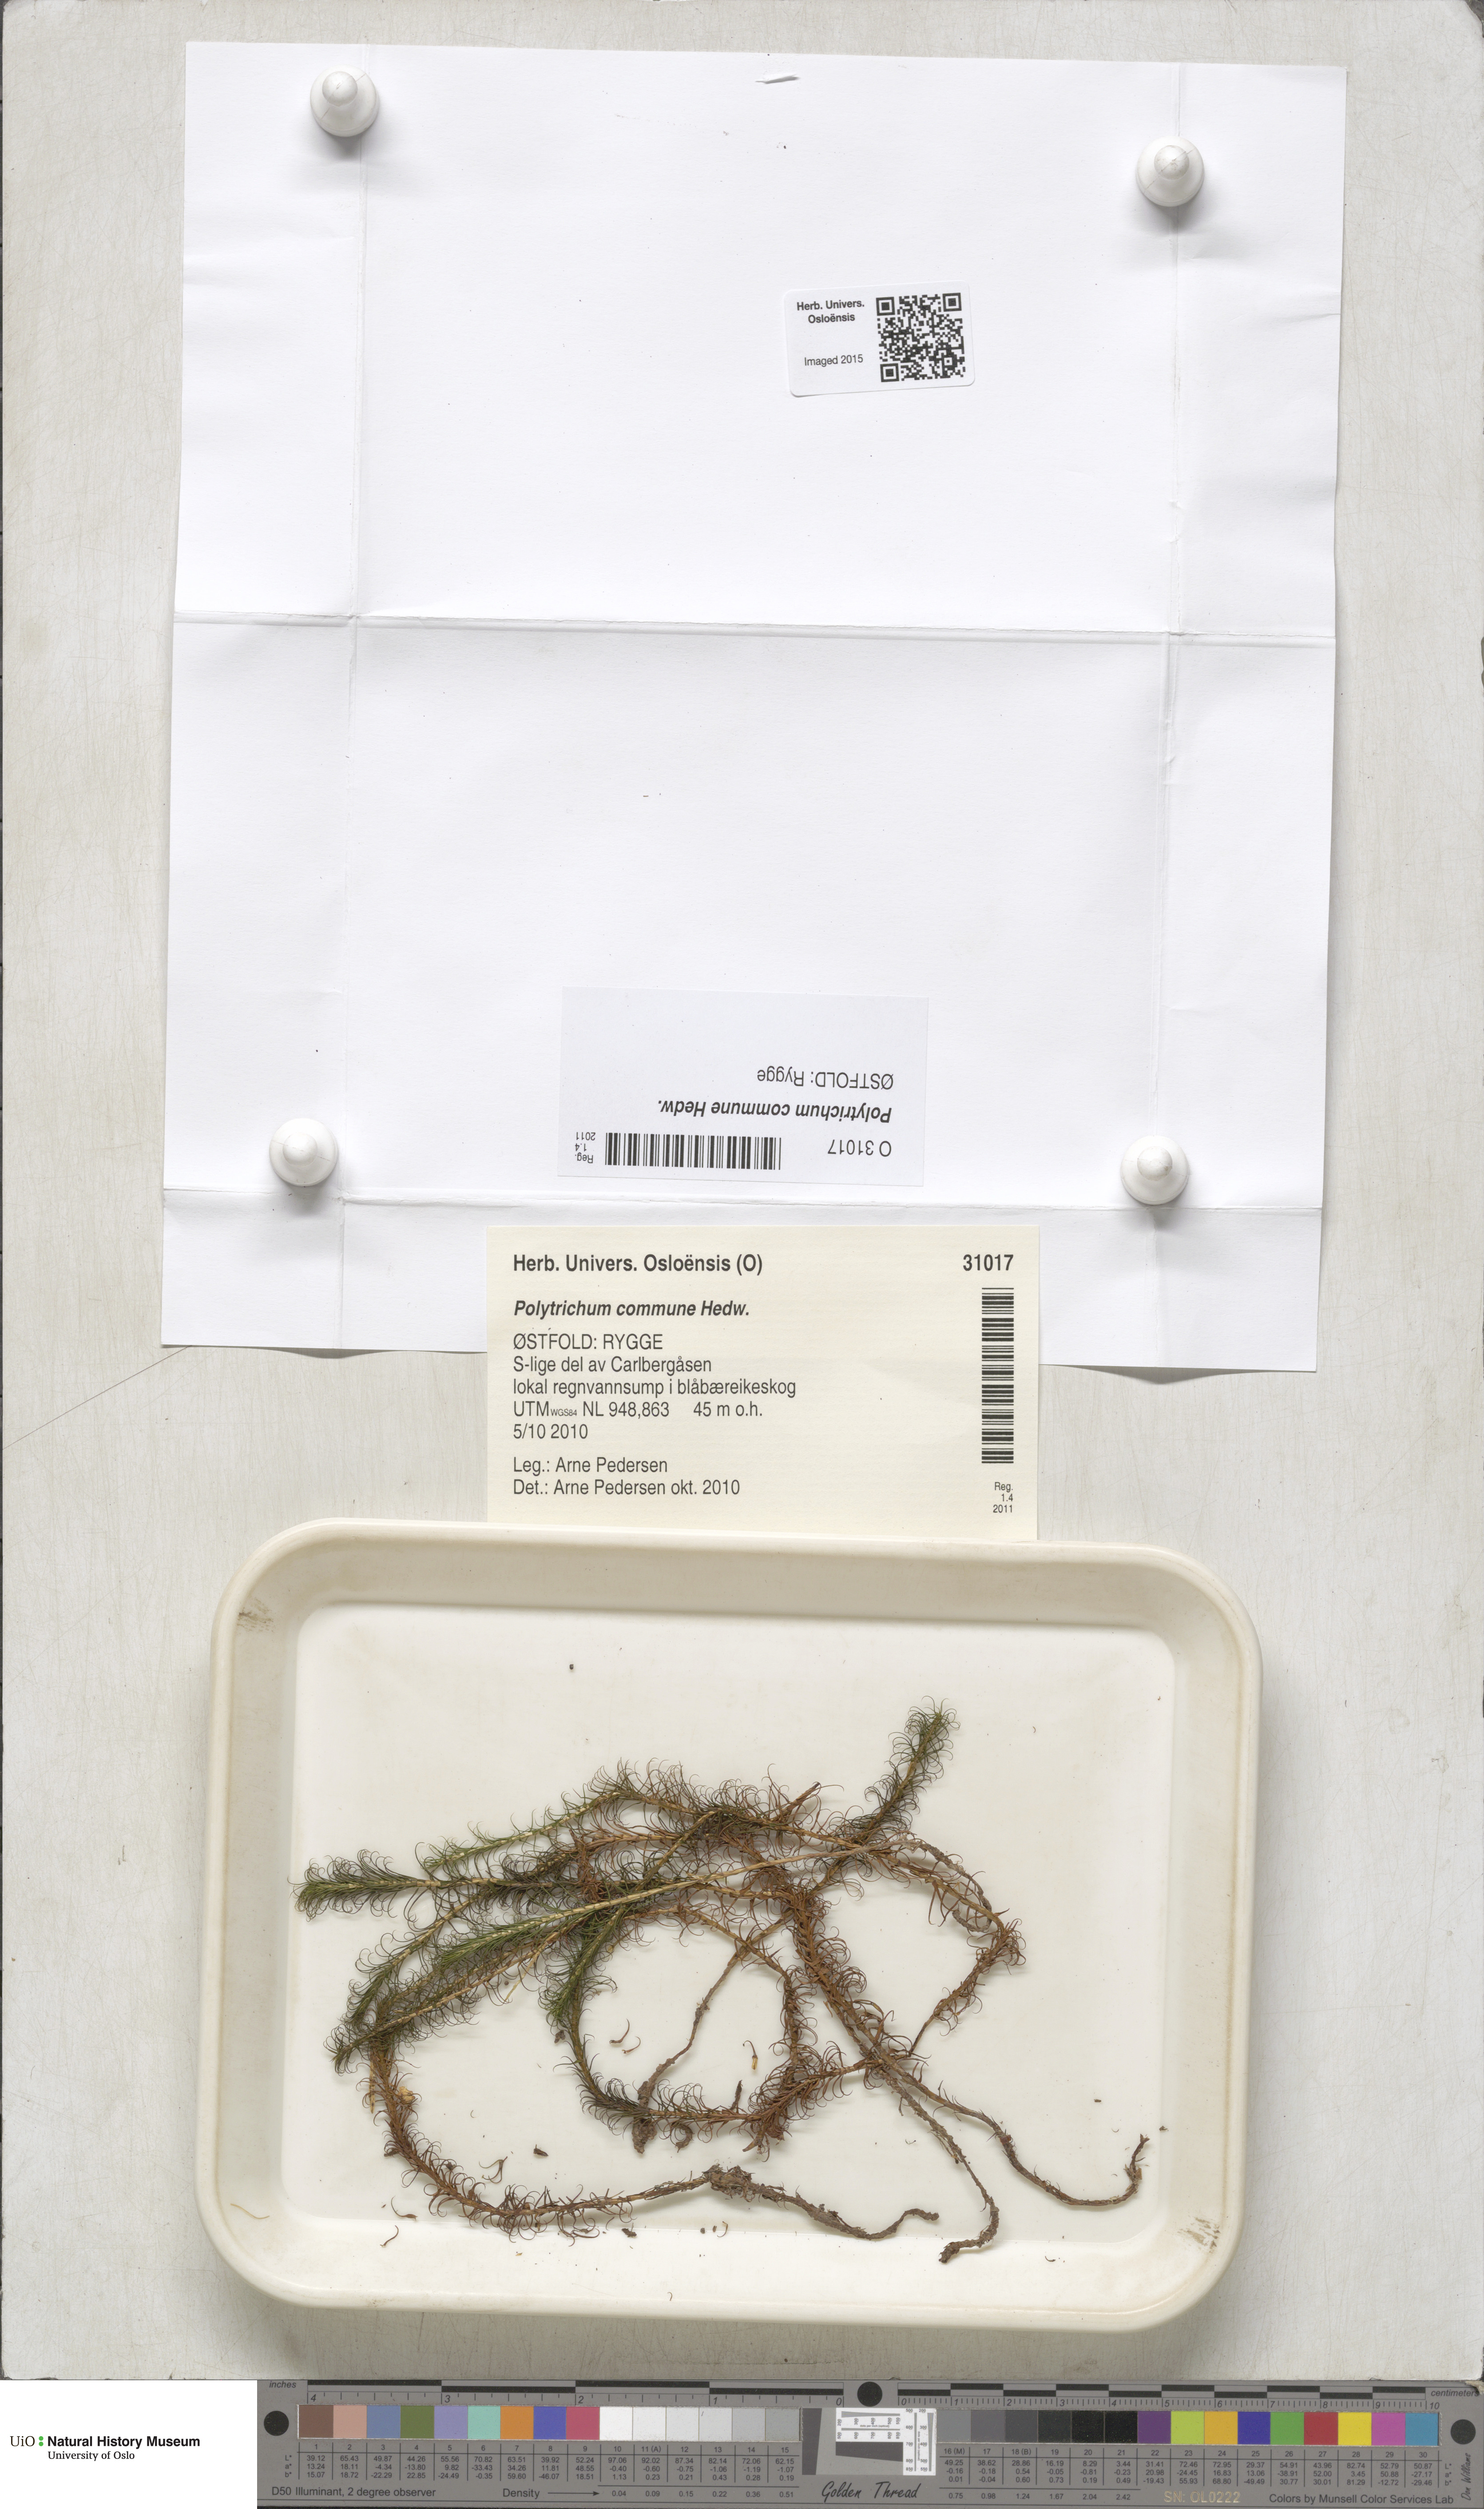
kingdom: Plantae
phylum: Bryophyta
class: Polytrichopsida
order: Polytrichales
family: Polytrichaceae
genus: Polytrichum
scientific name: Polytrichum commune
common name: Common haircap
